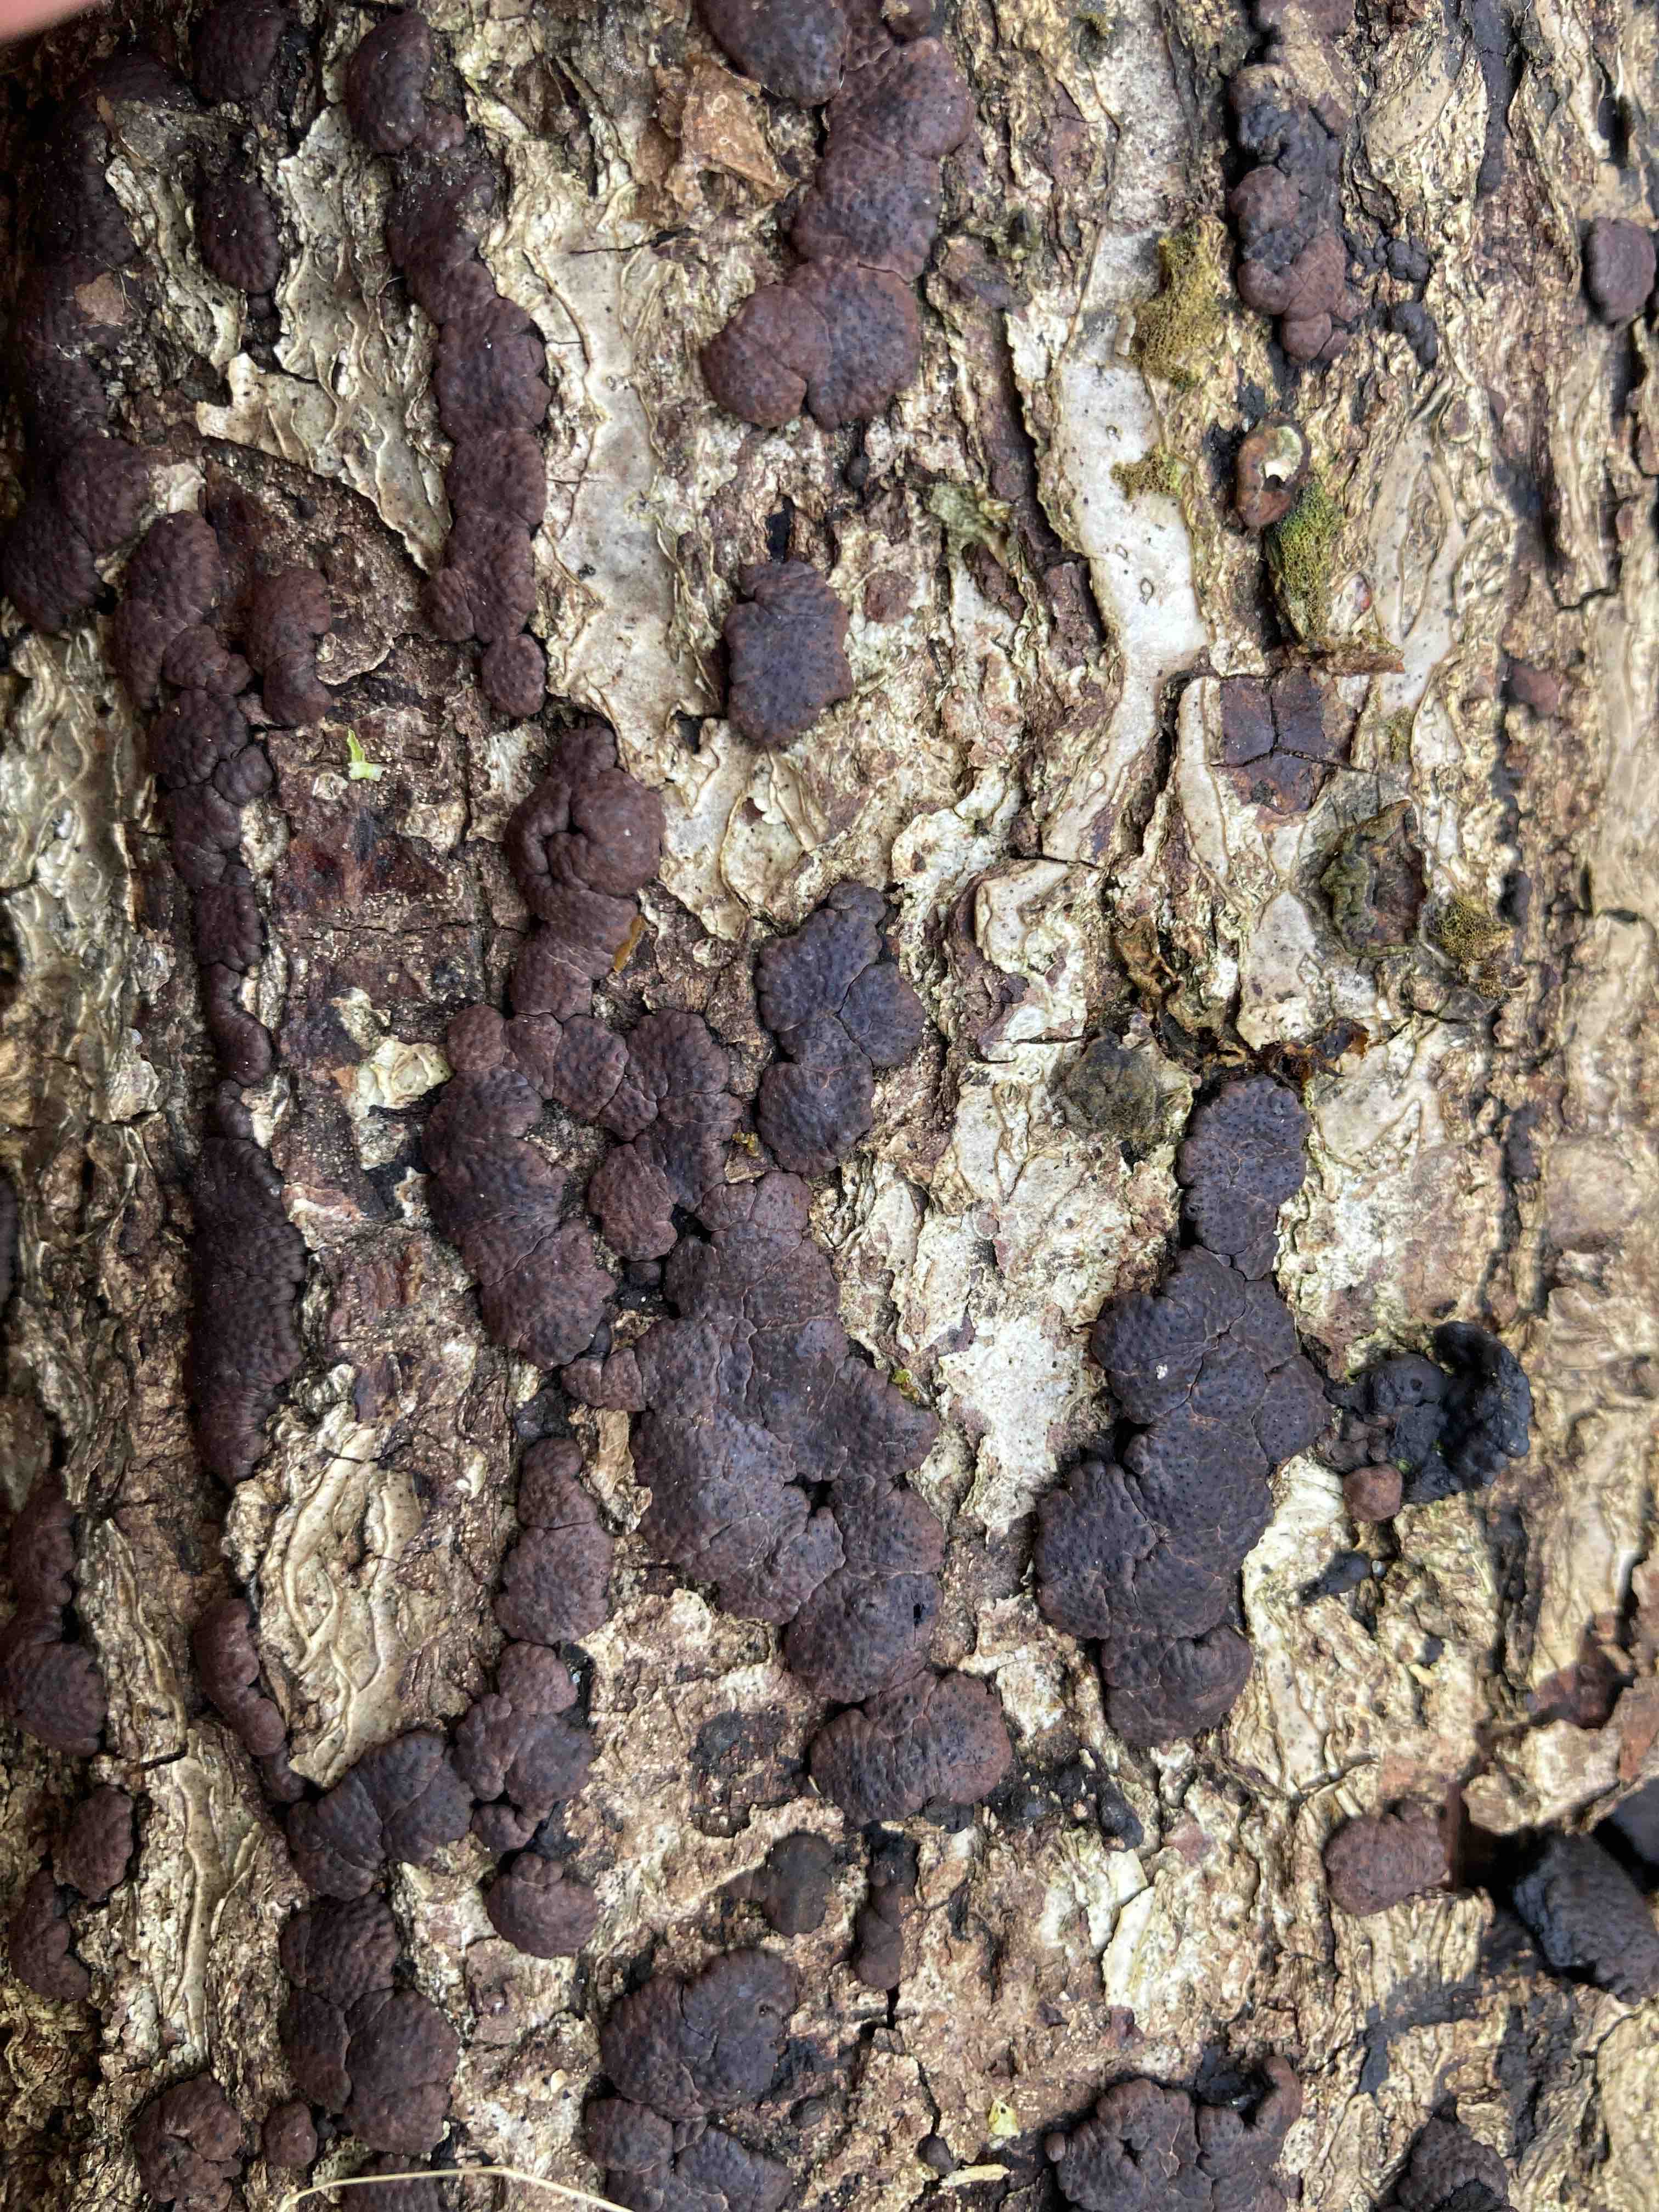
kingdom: Fungi
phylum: Ascomycota
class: Sordariomycetes
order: Xylariales
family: Hypoxylaceae
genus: Jackrogersella
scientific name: Jackrogersella minutella
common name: ege-kulbær
